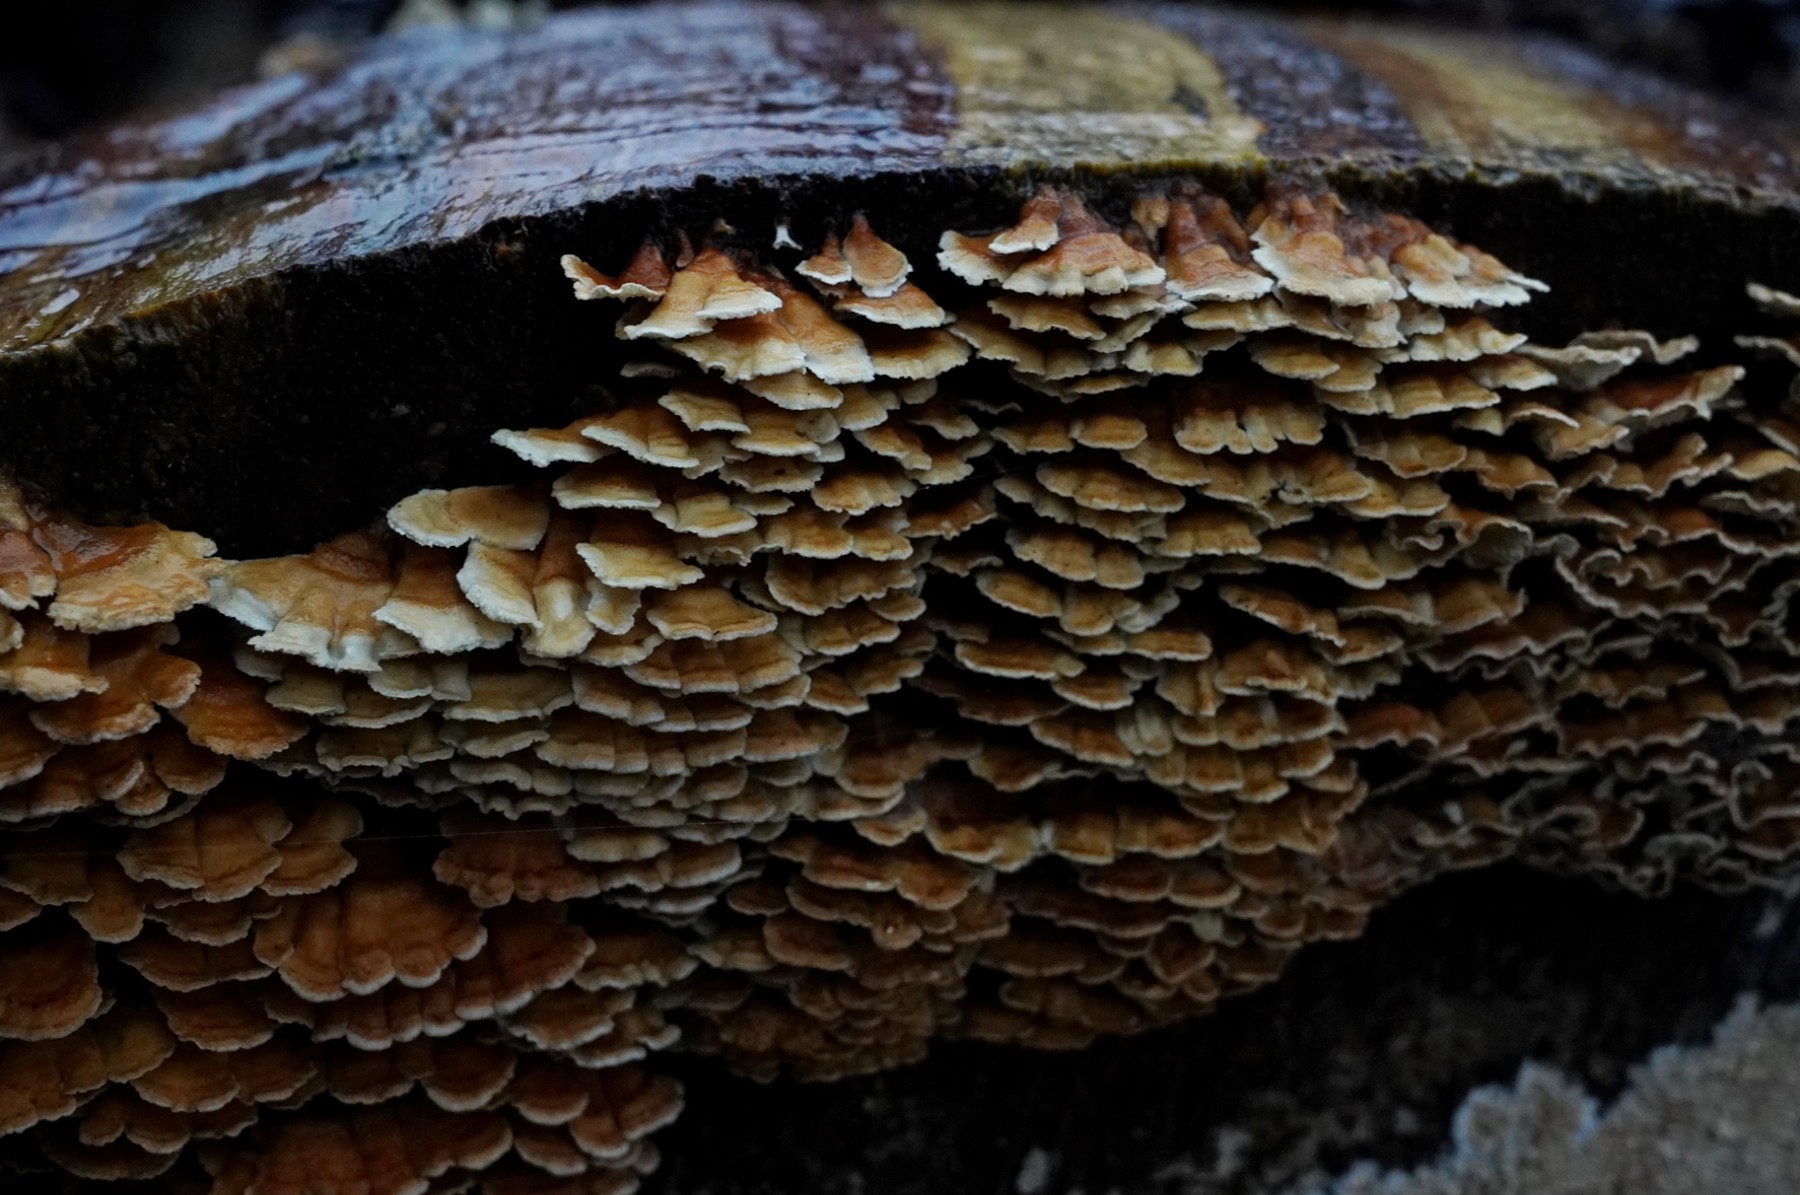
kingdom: Fungi
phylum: Basidiomycota
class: Agaricomycetes
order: Amylocorticiales
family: Amylocorticiaceae
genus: Plicaturopsis
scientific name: Plicaturopsis crispa
